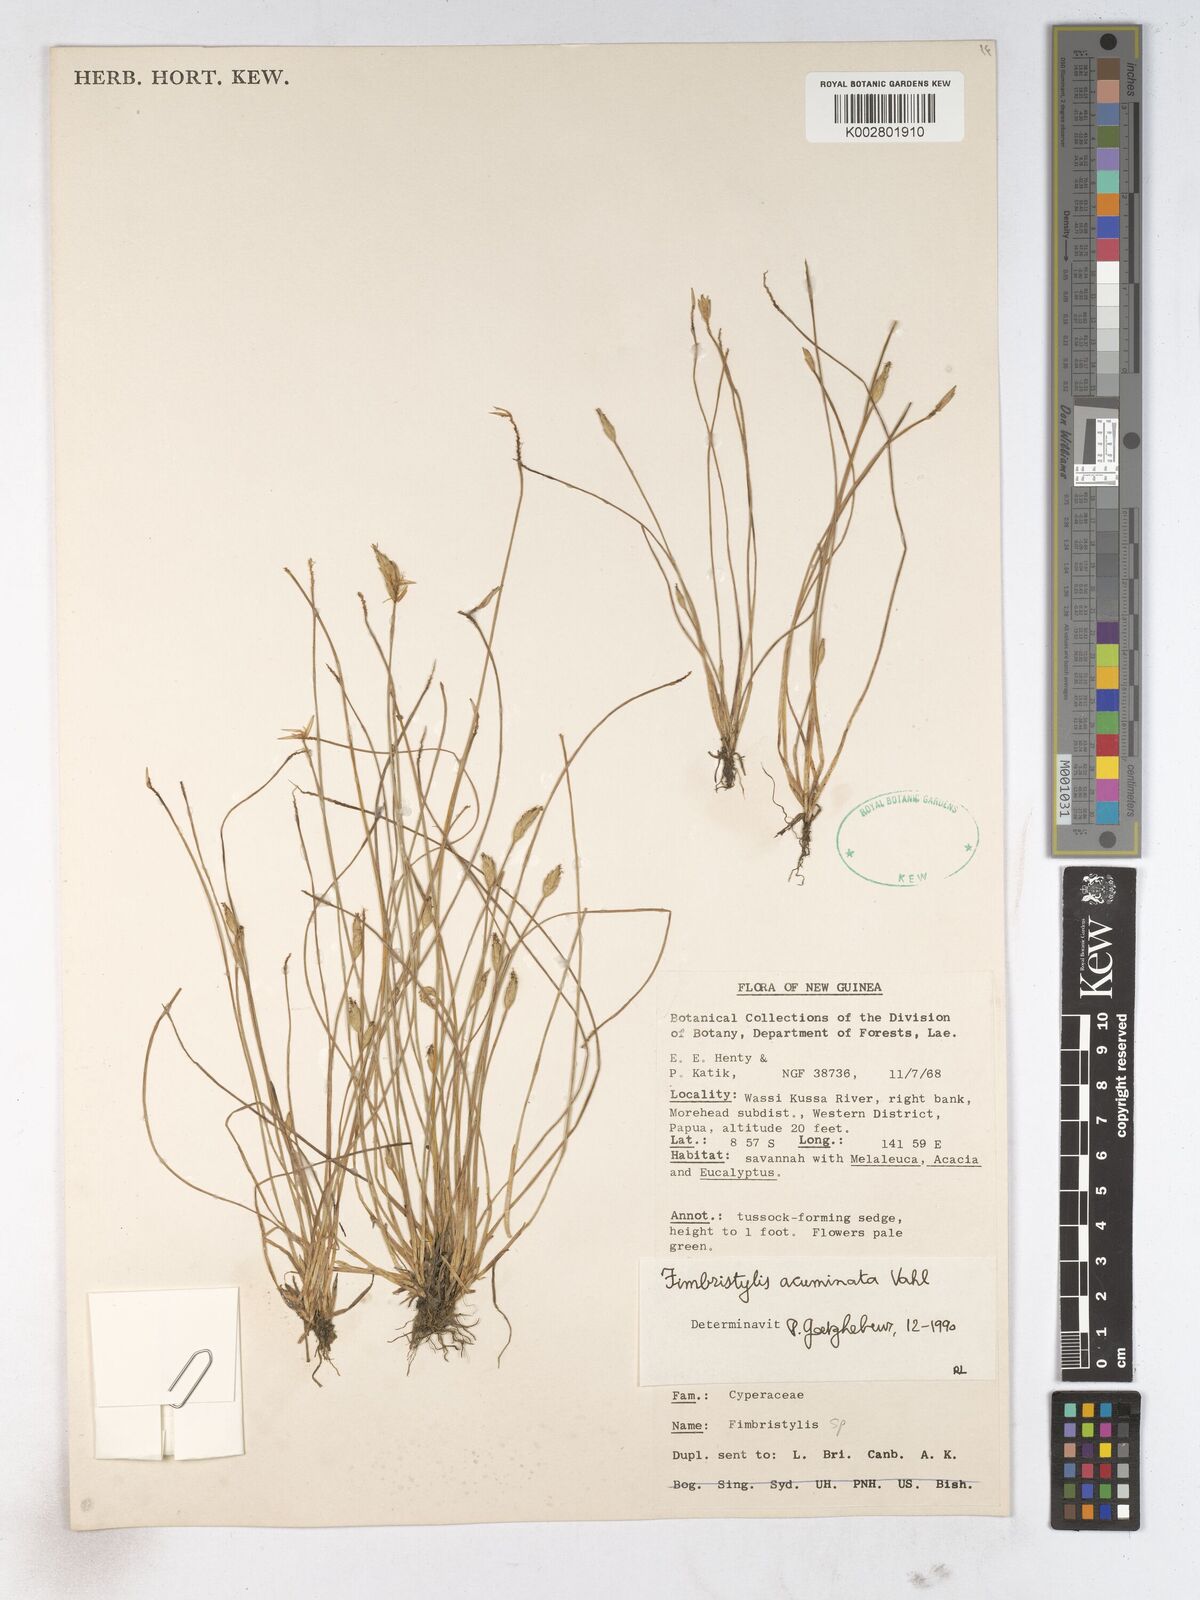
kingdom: Plantae
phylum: Tracheophyta
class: Liliopsida
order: Poales
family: Cyperaceae
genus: Fimbristylis
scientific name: Fimbristylis acuminata
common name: Pointed fimbristylis
